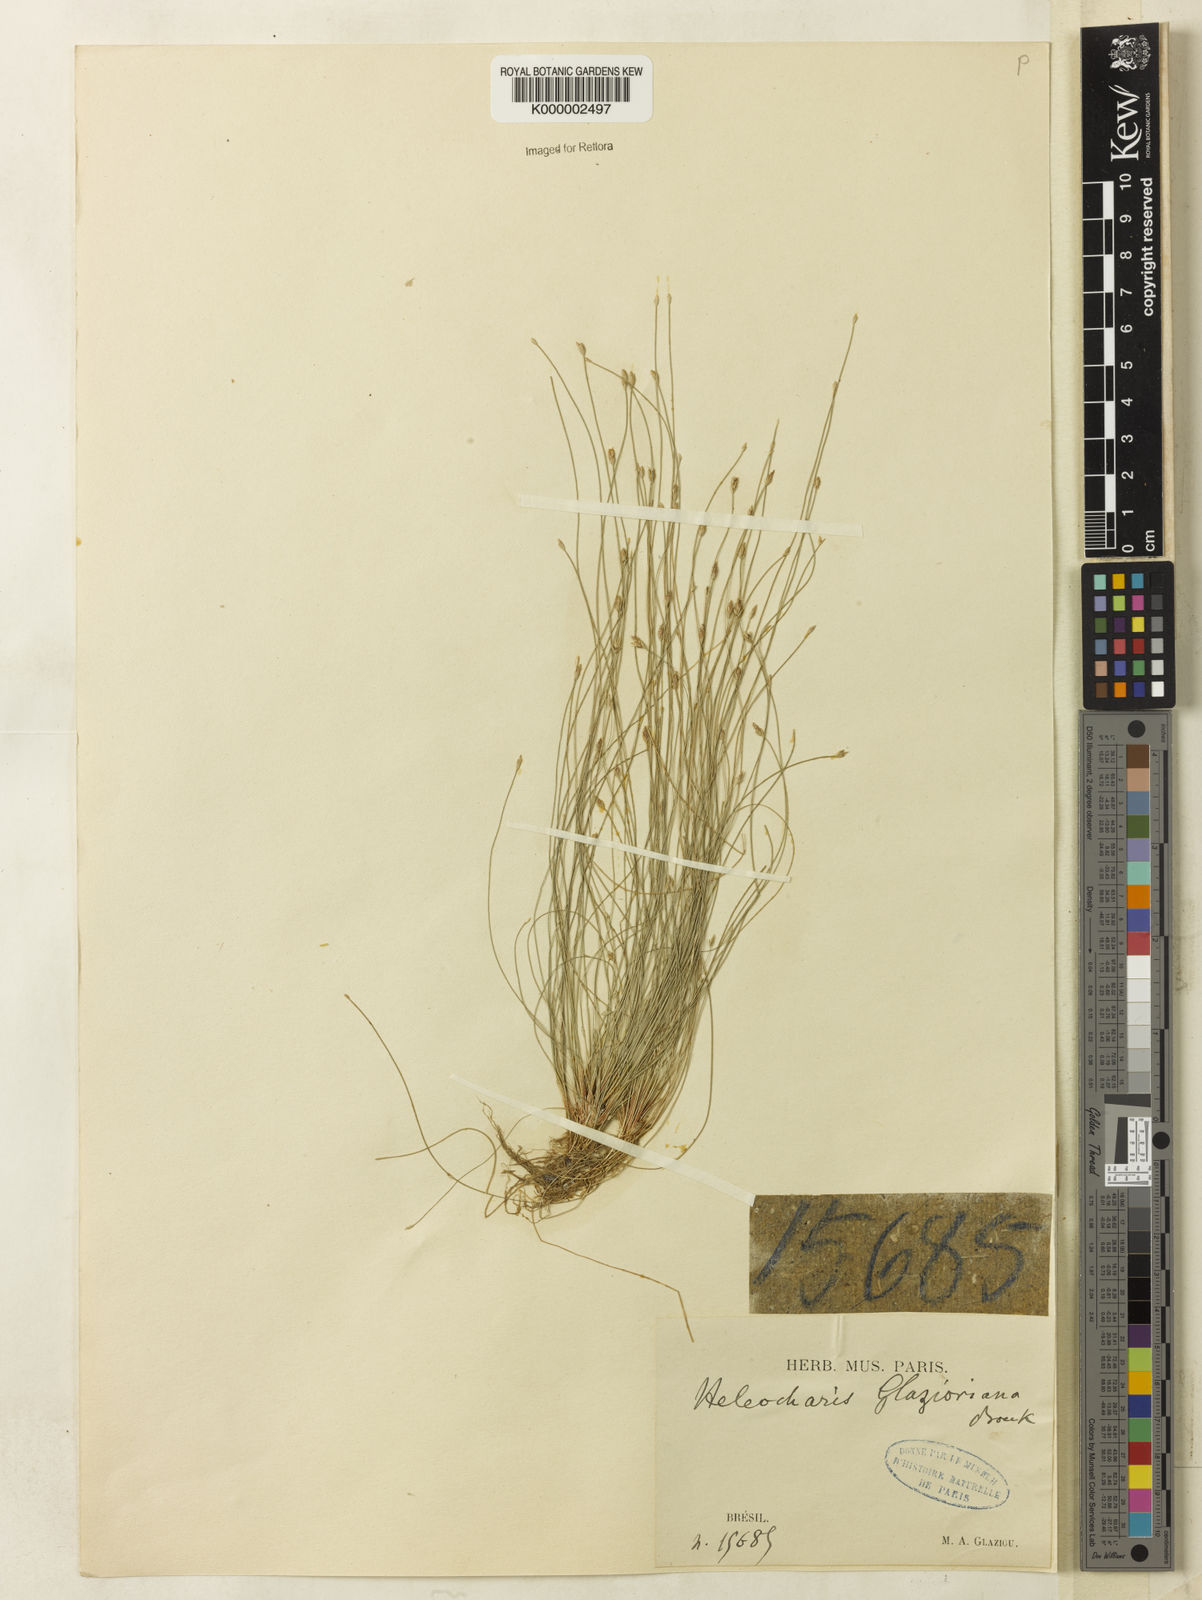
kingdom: Plantae
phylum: Tracheophyta
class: Liliopsida
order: Poales
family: Cyperaceae
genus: Eleocharis
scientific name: Eleocharis maculosa
